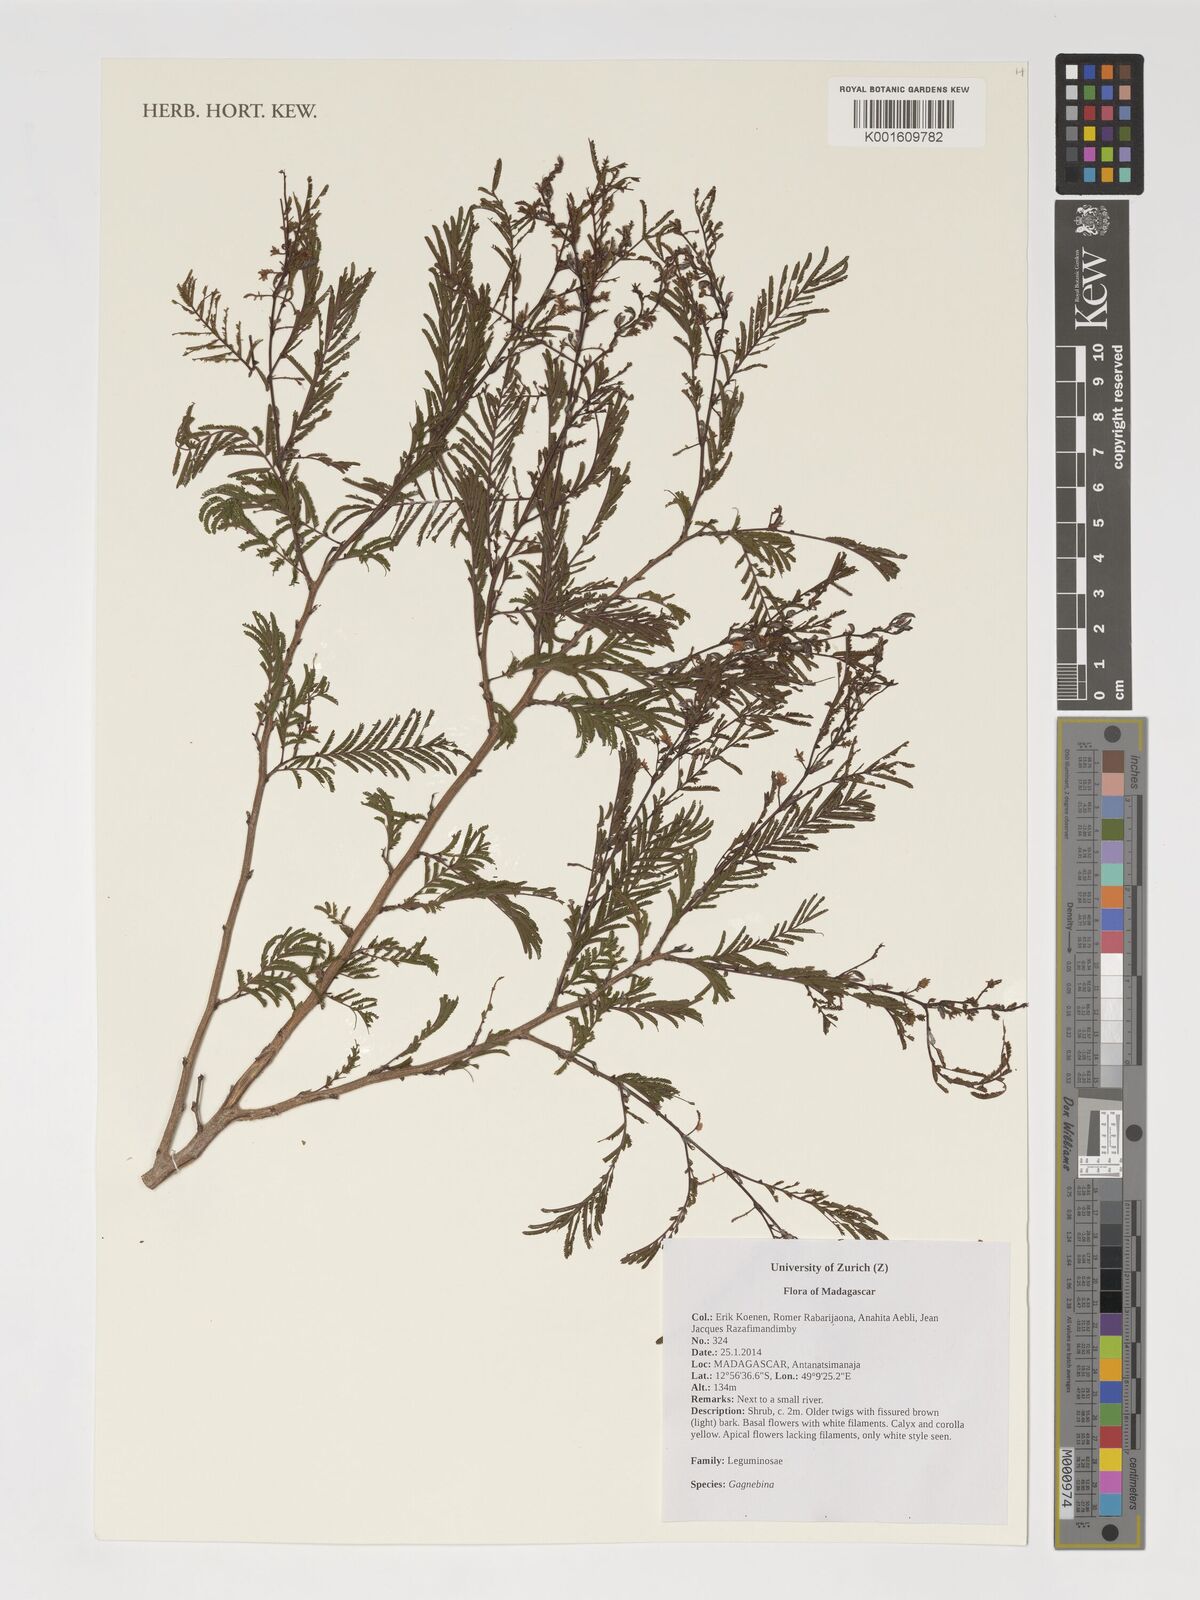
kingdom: Plantae
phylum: Tracheophyta
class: Magnoliopsida
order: Fabales
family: Fabaceae
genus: Gagnebina
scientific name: Gagnebina
